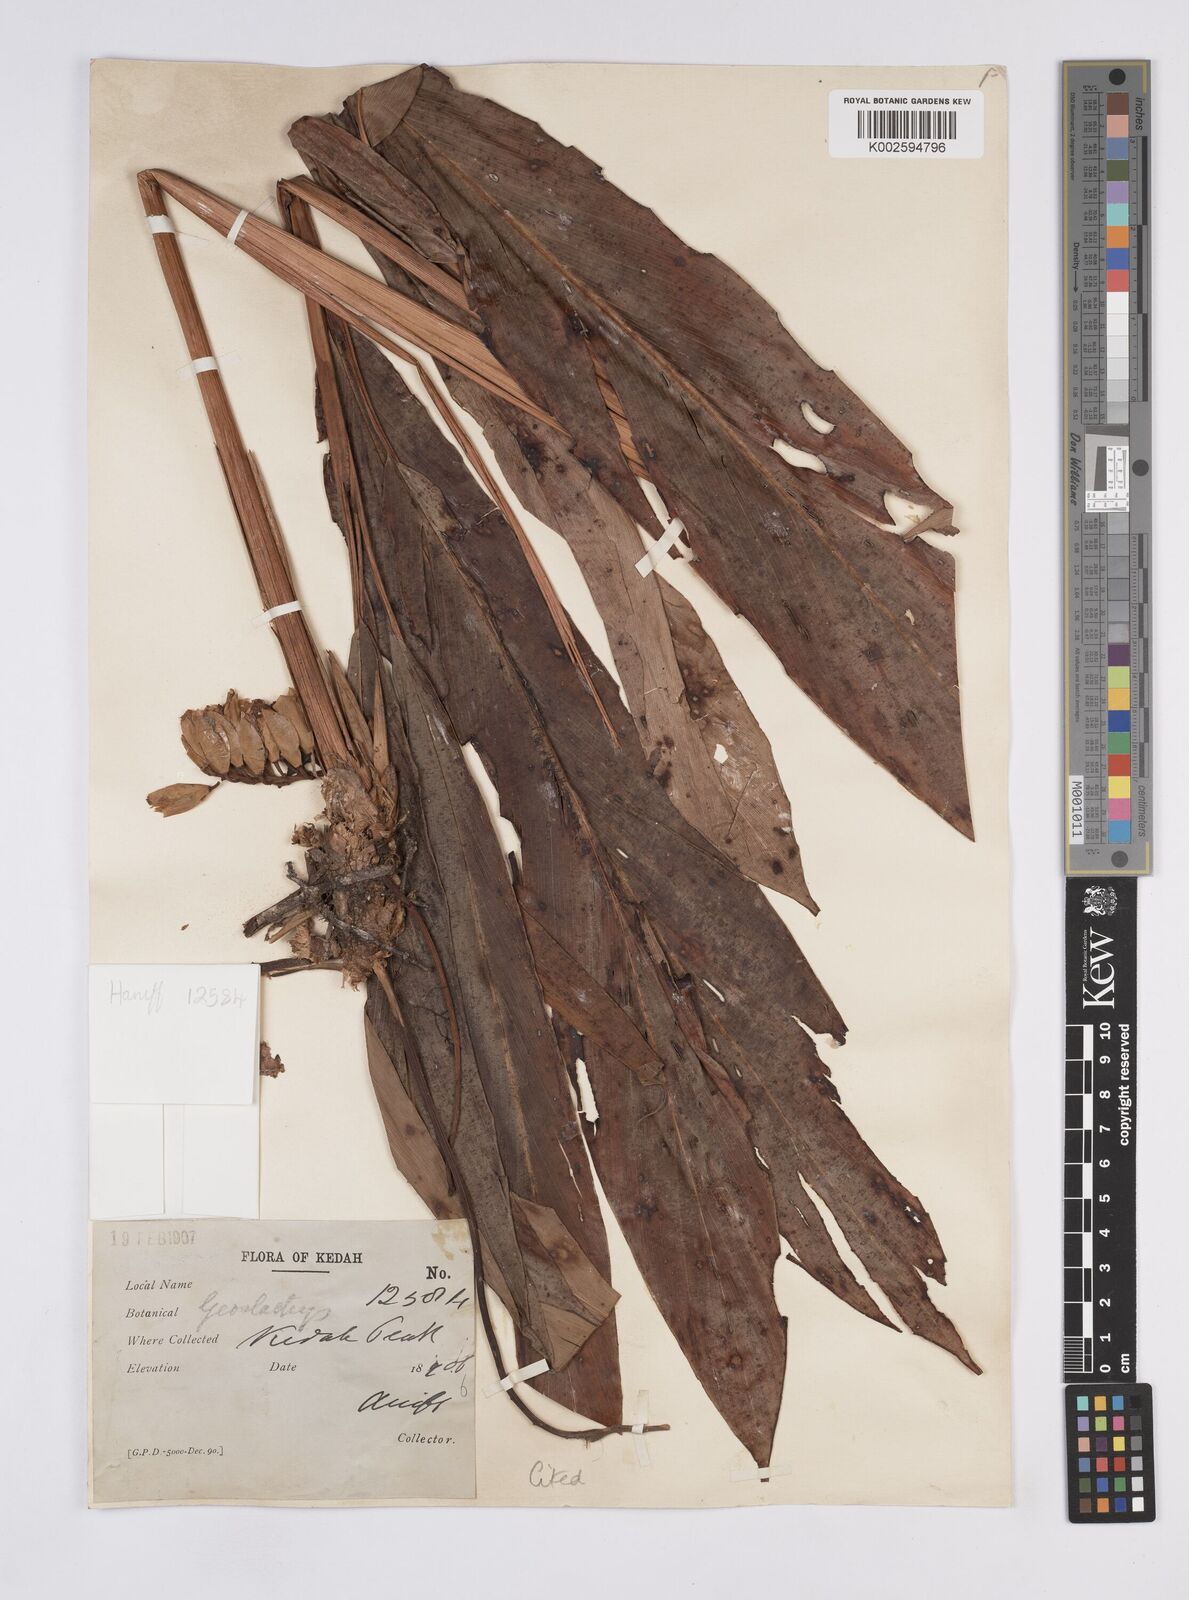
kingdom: Plantae
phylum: Tracheophyta
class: Liliopsida
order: Zingiberales
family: Zingiberaceae
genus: Geostachys
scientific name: Geostachys rupestris
